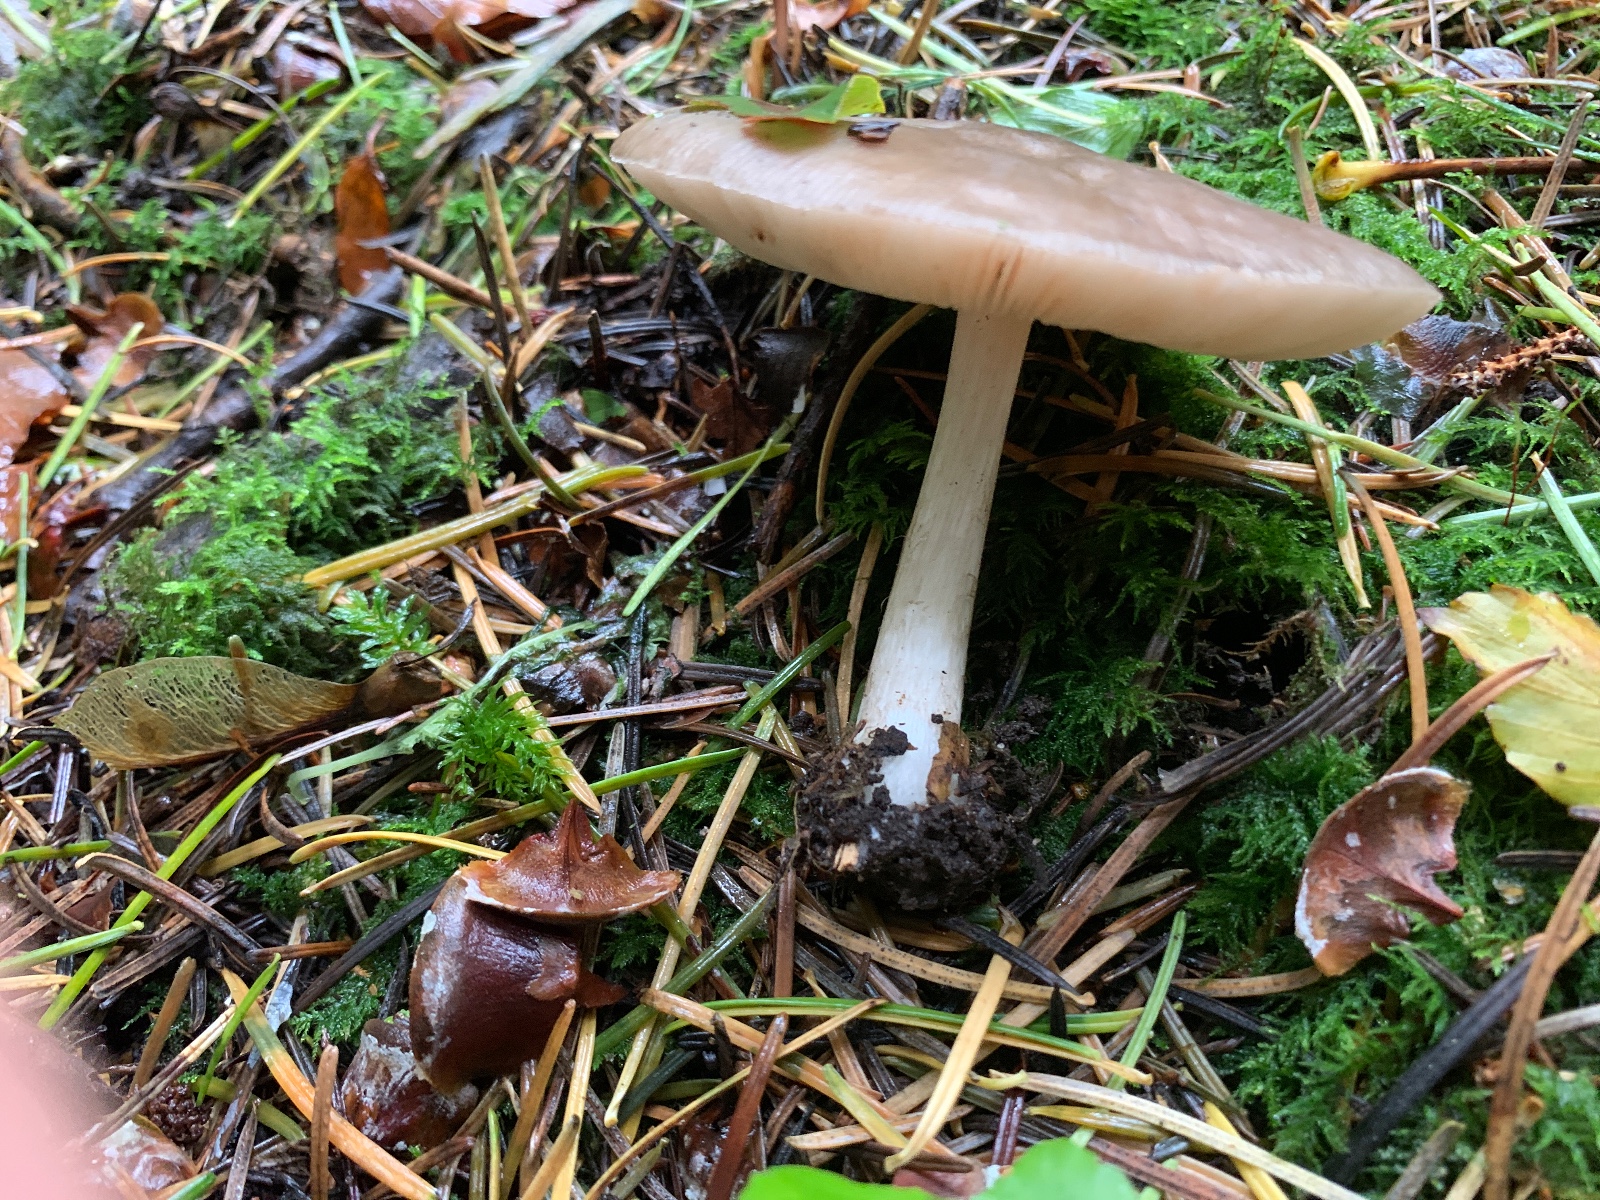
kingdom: Fungi
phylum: Basidiomycota
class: Agaricomycetes
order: Agaricales
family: Pluteaceae
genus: Pluteus
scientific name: Pluteus cervinus
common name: sodfarvet skærmhat
